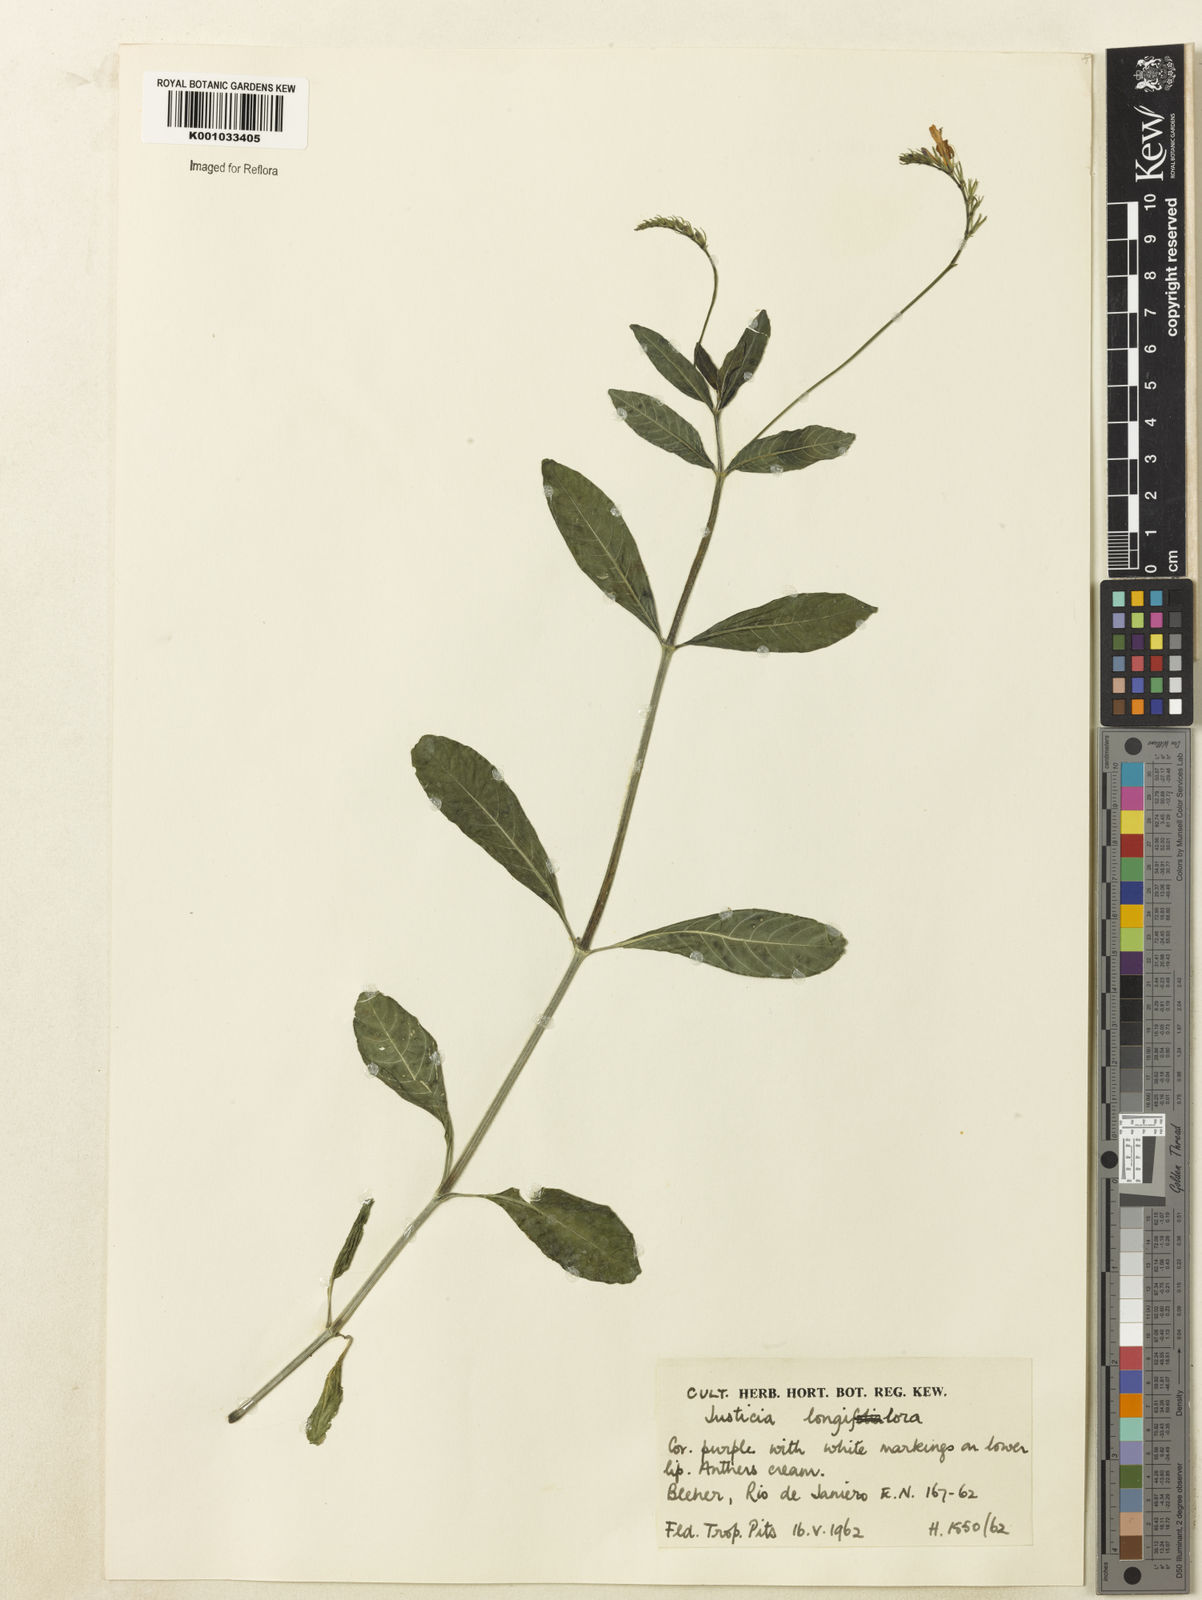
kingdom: Plantae
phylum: Tracheophyta
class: Magnoliopsida
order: Lamiales
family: Acanthaceae
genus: Justicia
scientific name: Justicia
